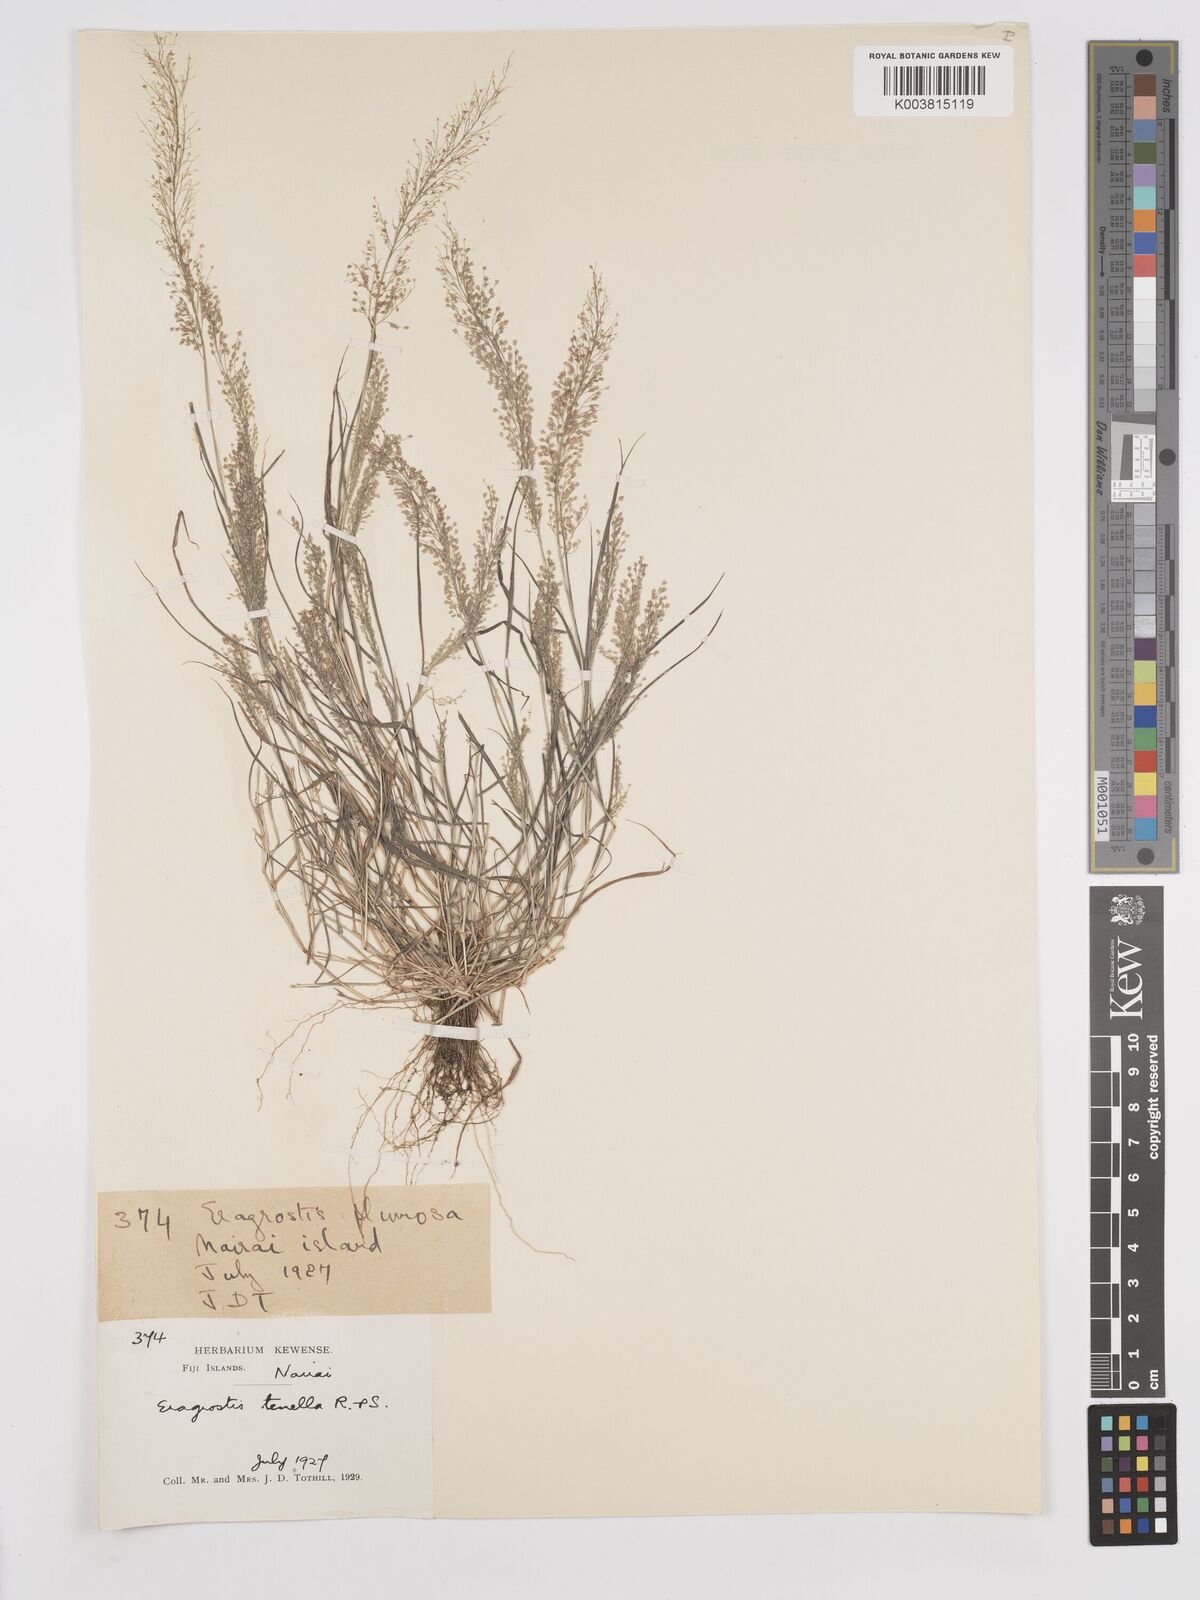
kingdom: Plantae
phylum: Tracheophyta
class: Liliopsida
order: Poales
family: Poaceae
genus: Eragrostis
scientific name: Eragrostis tenella
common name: Japanese lovegrass
